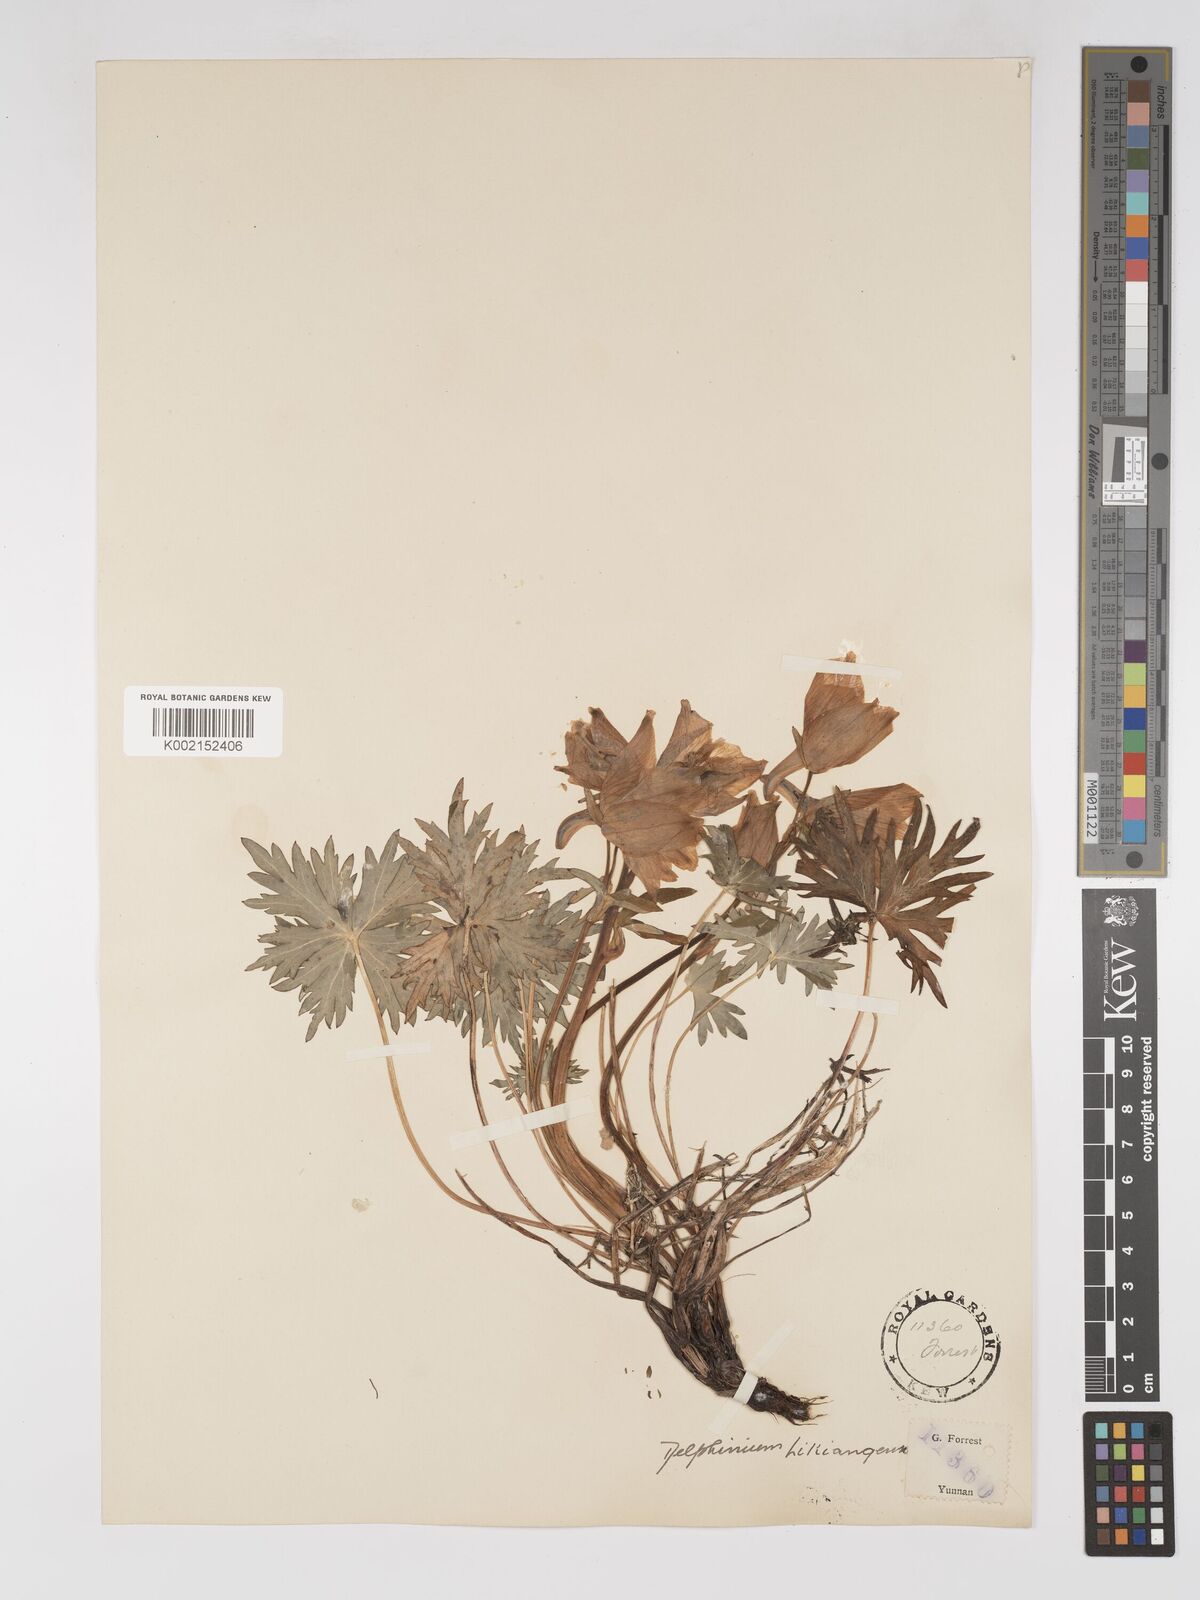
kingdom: Plantae
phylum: Tracheophyta
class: Magnoliopsida
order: Ranunculales
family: Ranunculaceae
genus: Delphinium
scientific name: Delphinium likiangense
